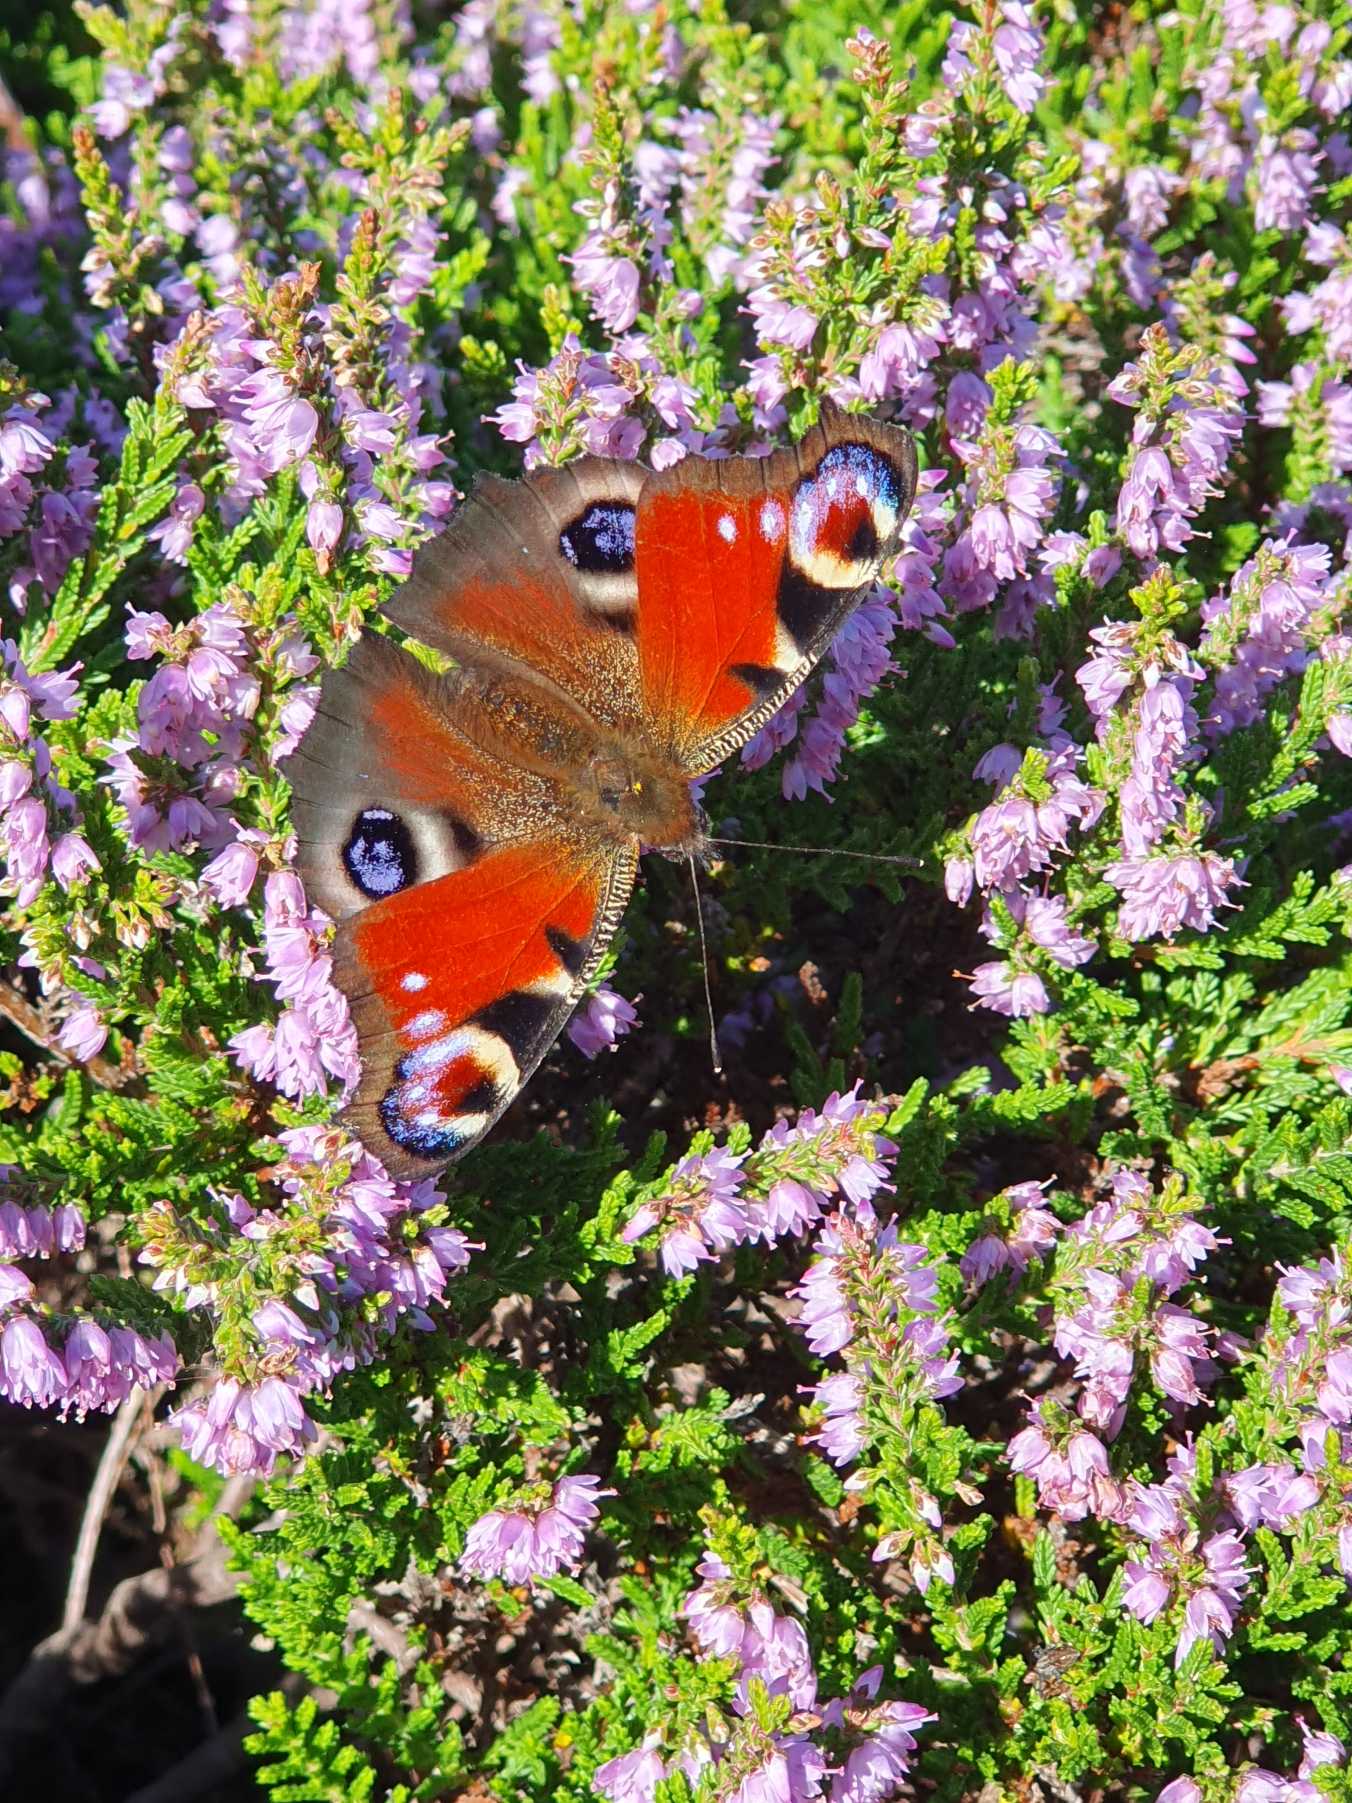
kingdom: Animalia
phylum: Arthropoda
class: Insecta
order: Lepidoptera
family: Nymphalidae
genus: Aglais
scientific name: Aglais io
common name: Dagpåfugleøje
